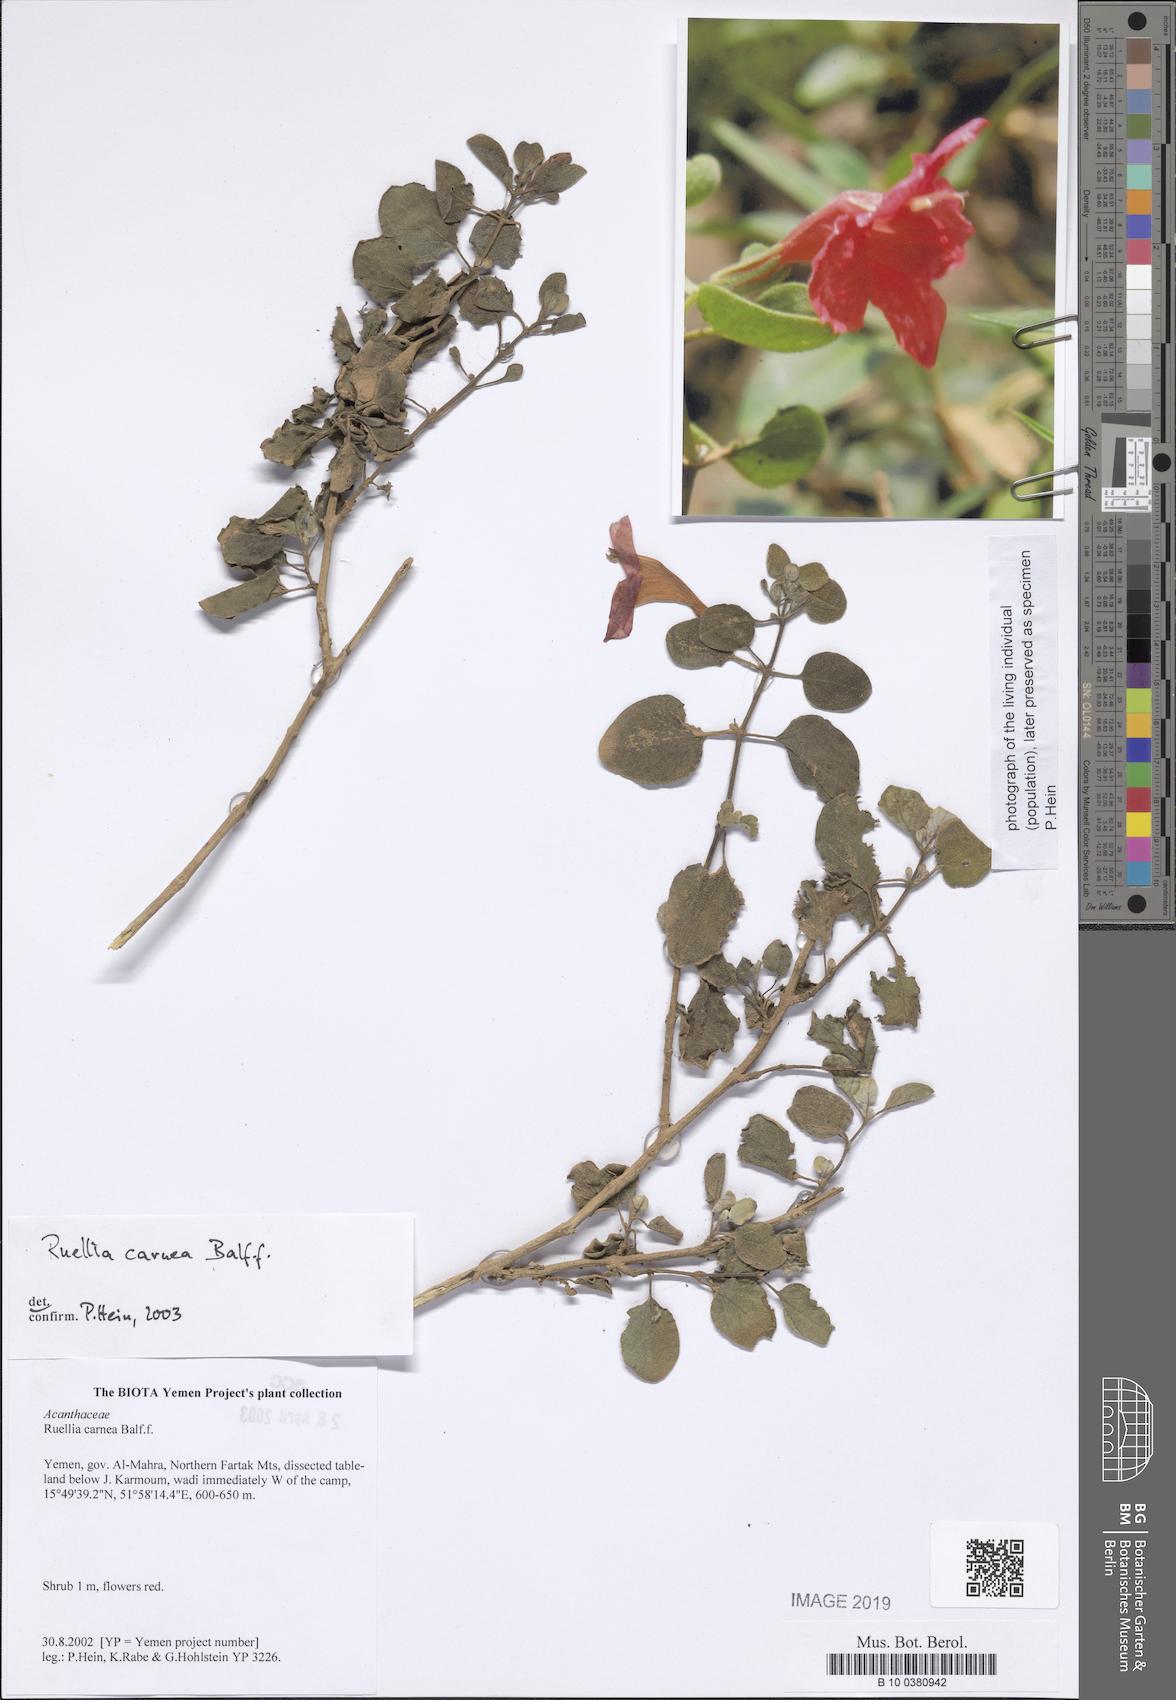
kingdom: Plantae
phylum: Tracheophyta
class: Magnoliopsida
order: Lamiales
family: Acanthaceae
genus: Ruellia
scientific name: Ruellia carnea
